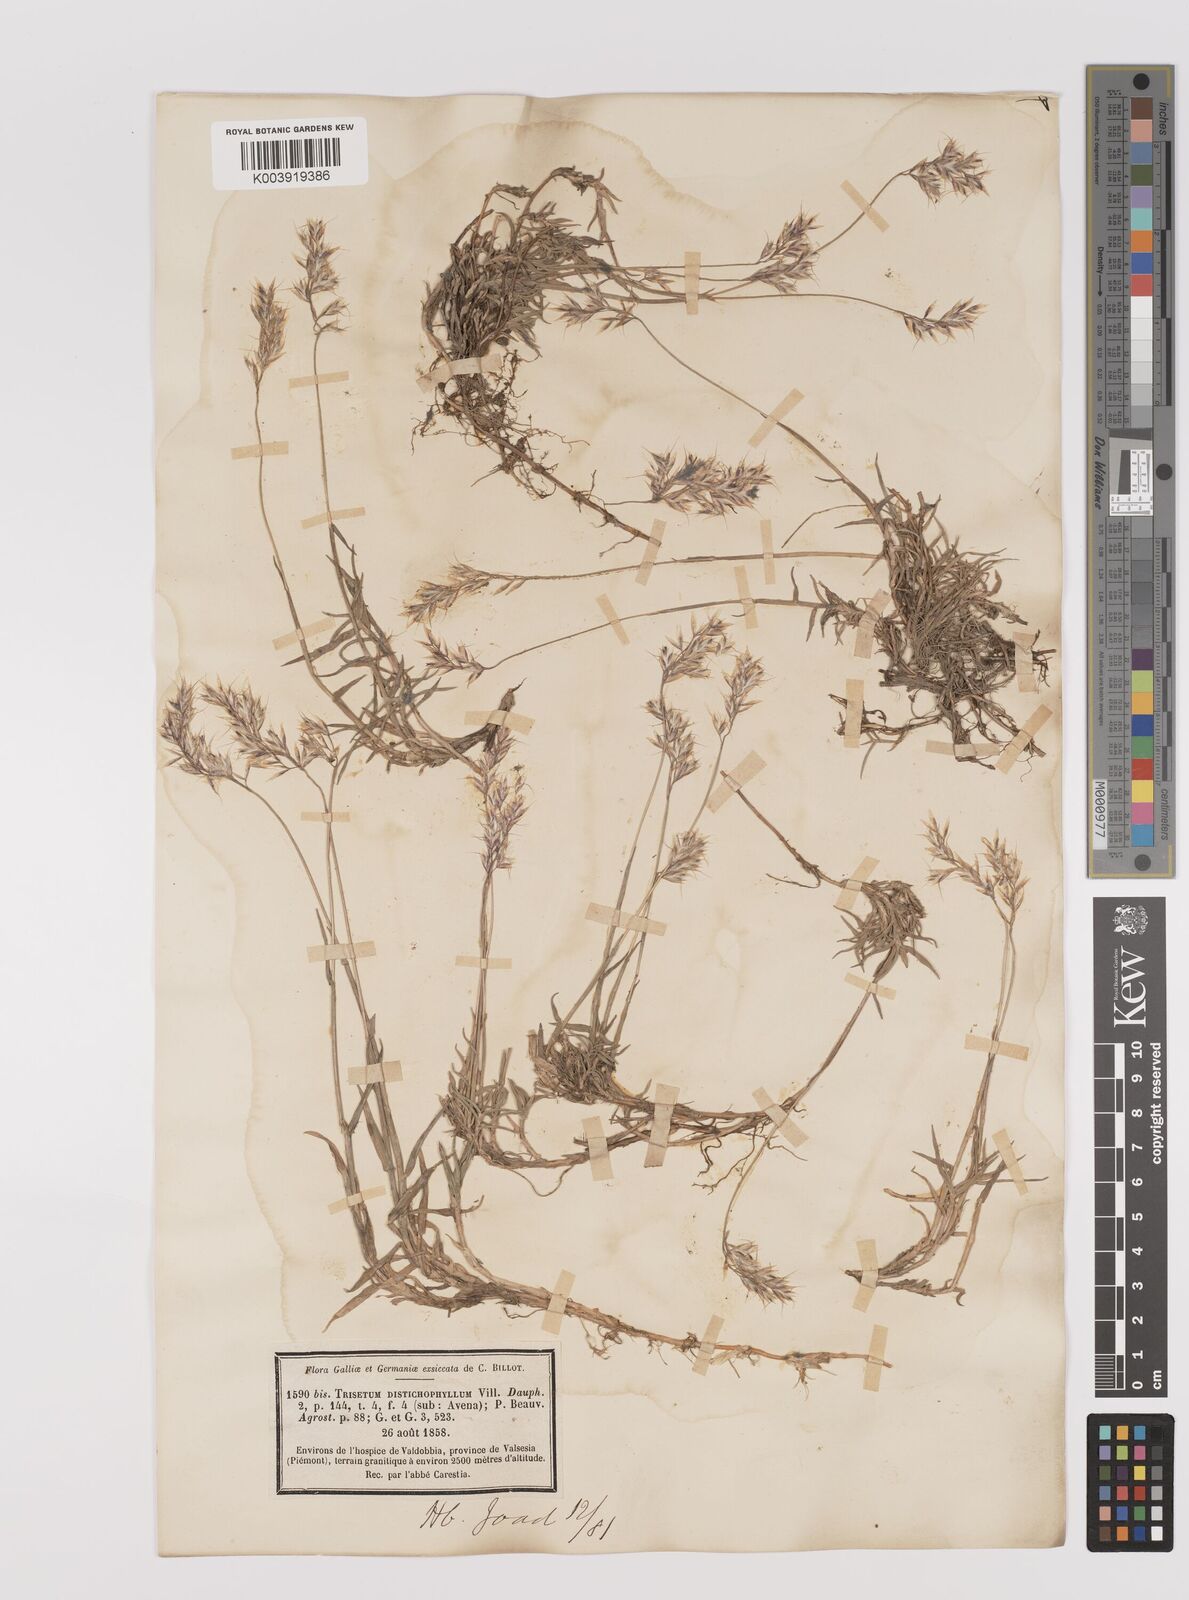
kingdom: Plantae
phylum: Tracheophyta
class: Liliopsida
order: Poales
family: Poaceae
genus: Acrospelion
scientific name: Acrospelion distichophyllum
